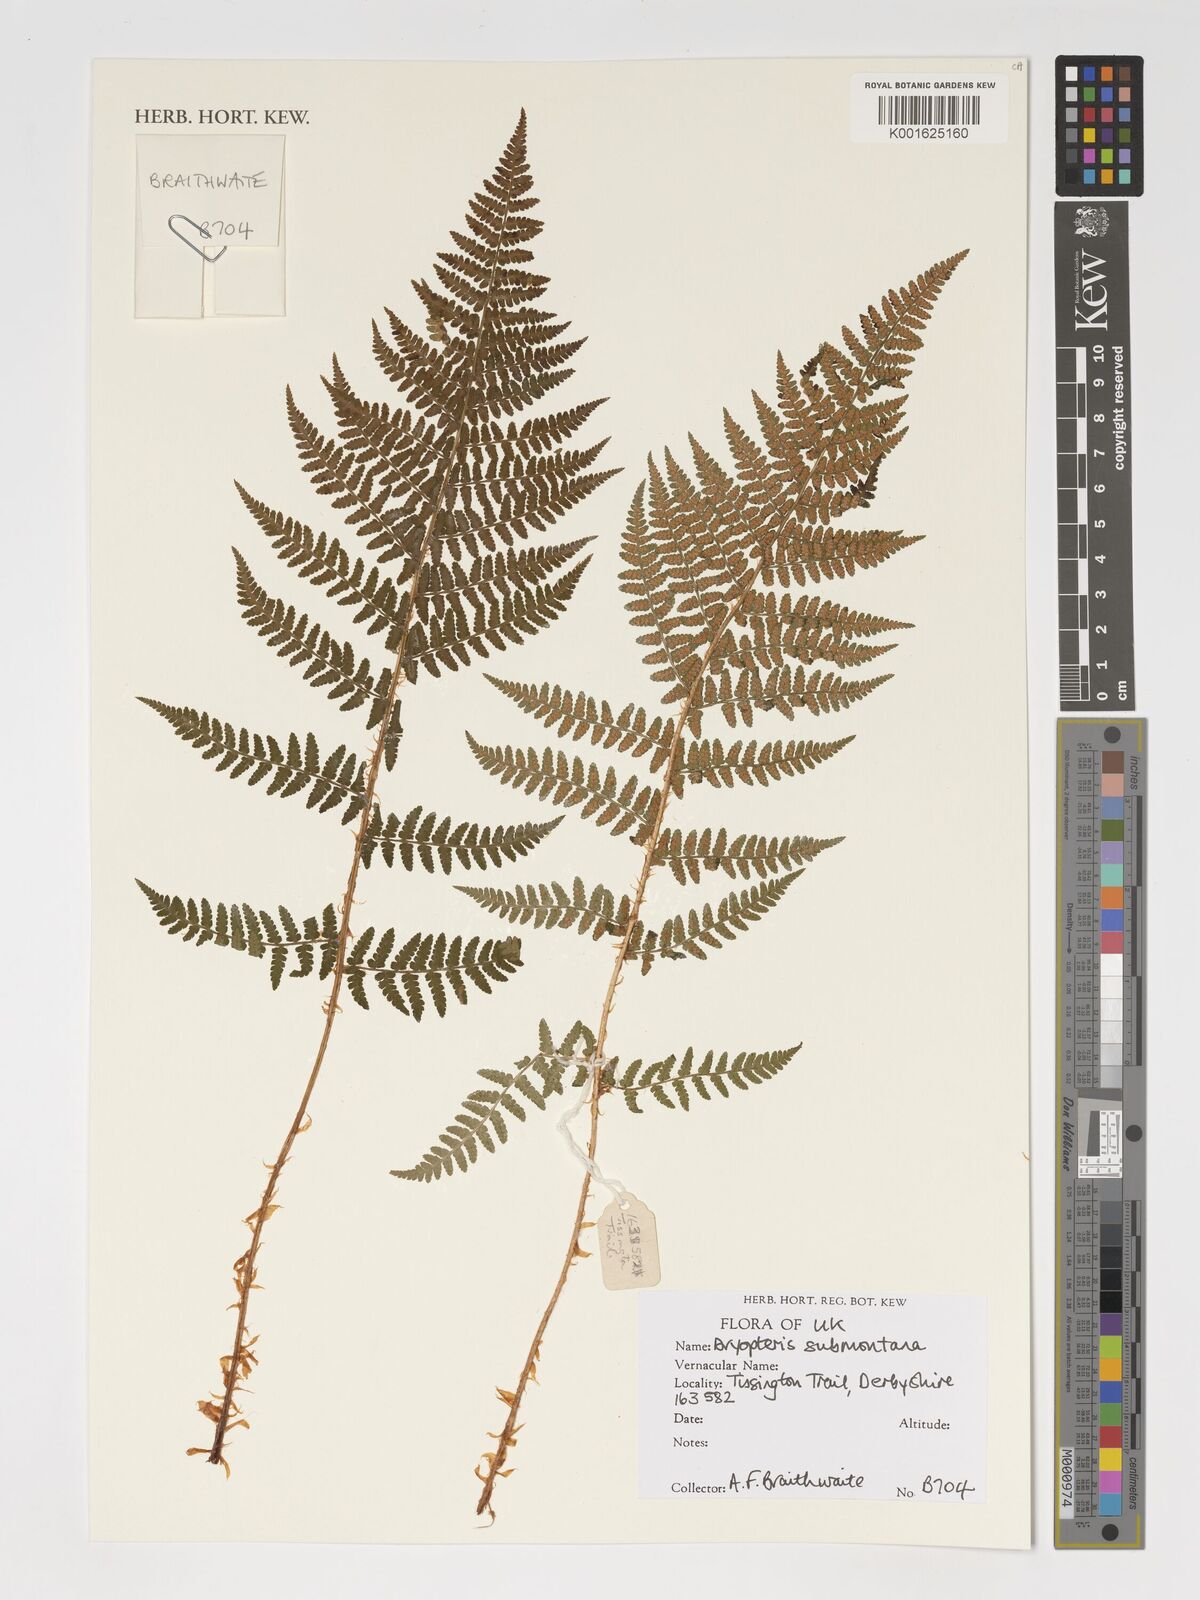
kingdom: Plantae
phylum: Tracheophyta
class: Polypodiopsida
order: Polypodiales
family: Dryopteridaceae
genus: Dryopteris
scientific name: Dryopteris mindshelkensis
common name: Limestone wood fern
